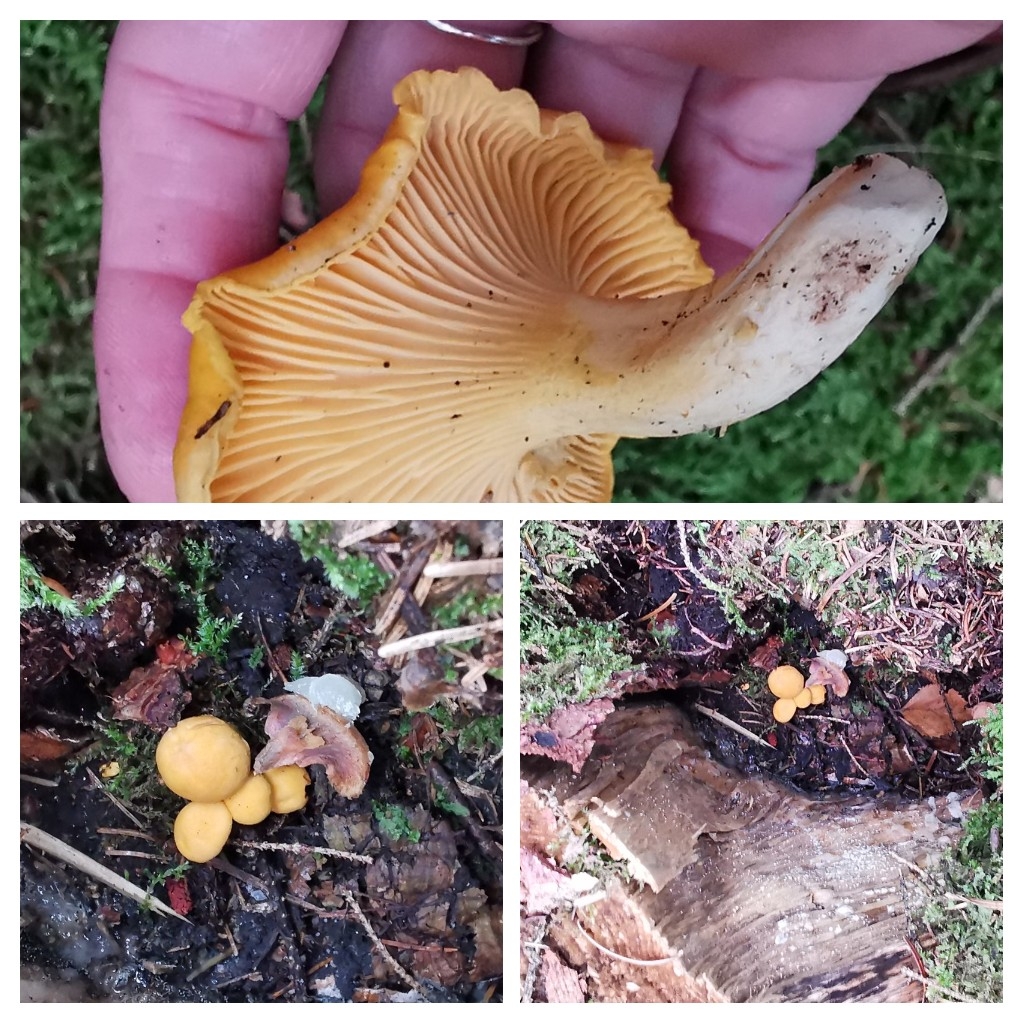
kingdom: Fungi
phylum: Basidiomycota
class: Agaricomycetes
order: Cantharellales
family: Hydnaceae
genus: Cantharellus
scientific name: Cantharellus cibarius
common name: almindelig kantarel
